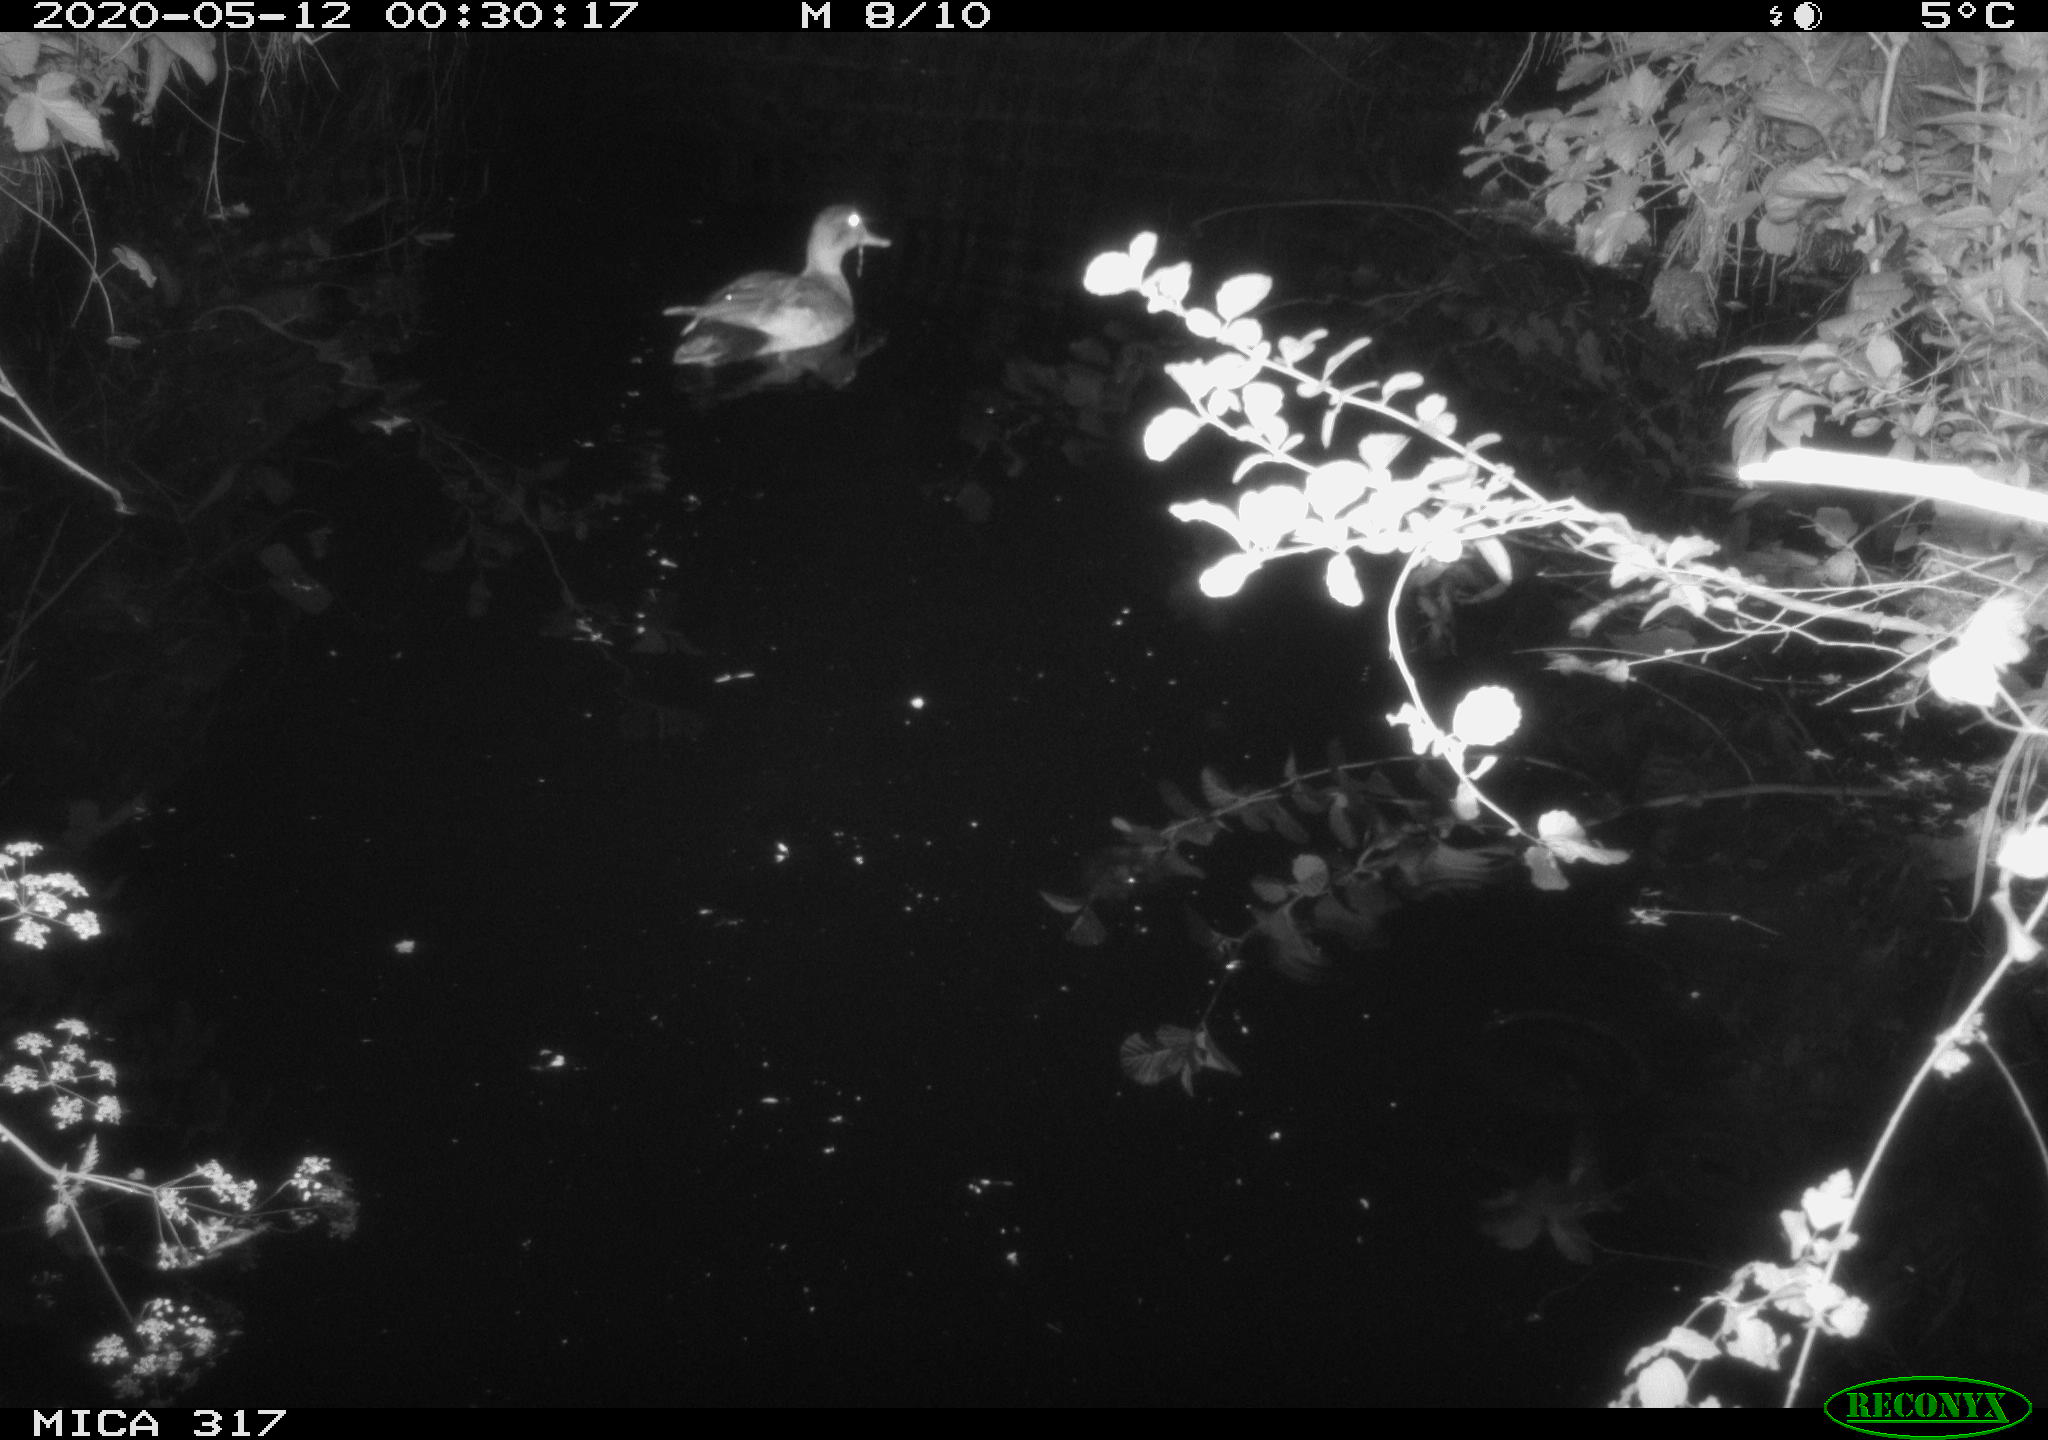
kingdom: Animalia
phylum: Chordata
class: Aves
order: Anseriformes
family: Anatidae
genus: Anas
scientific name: Anas platyrhynchos
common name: Mallard
